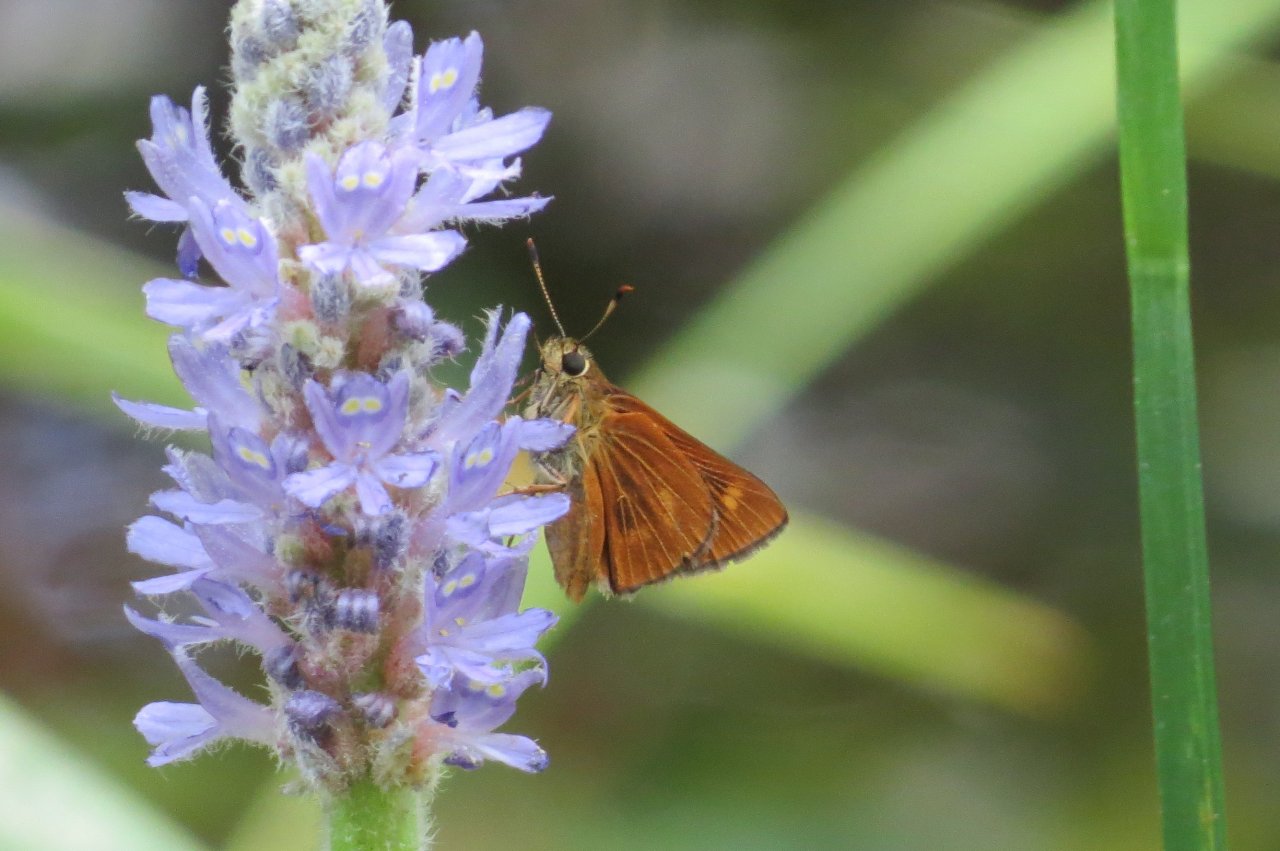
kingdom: Animalia
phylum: Arthropoda
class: Insecta
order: Lepidoptera
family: Hesperiidae
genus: Problema
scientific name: Problema byssus
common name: Byssus Skipper
